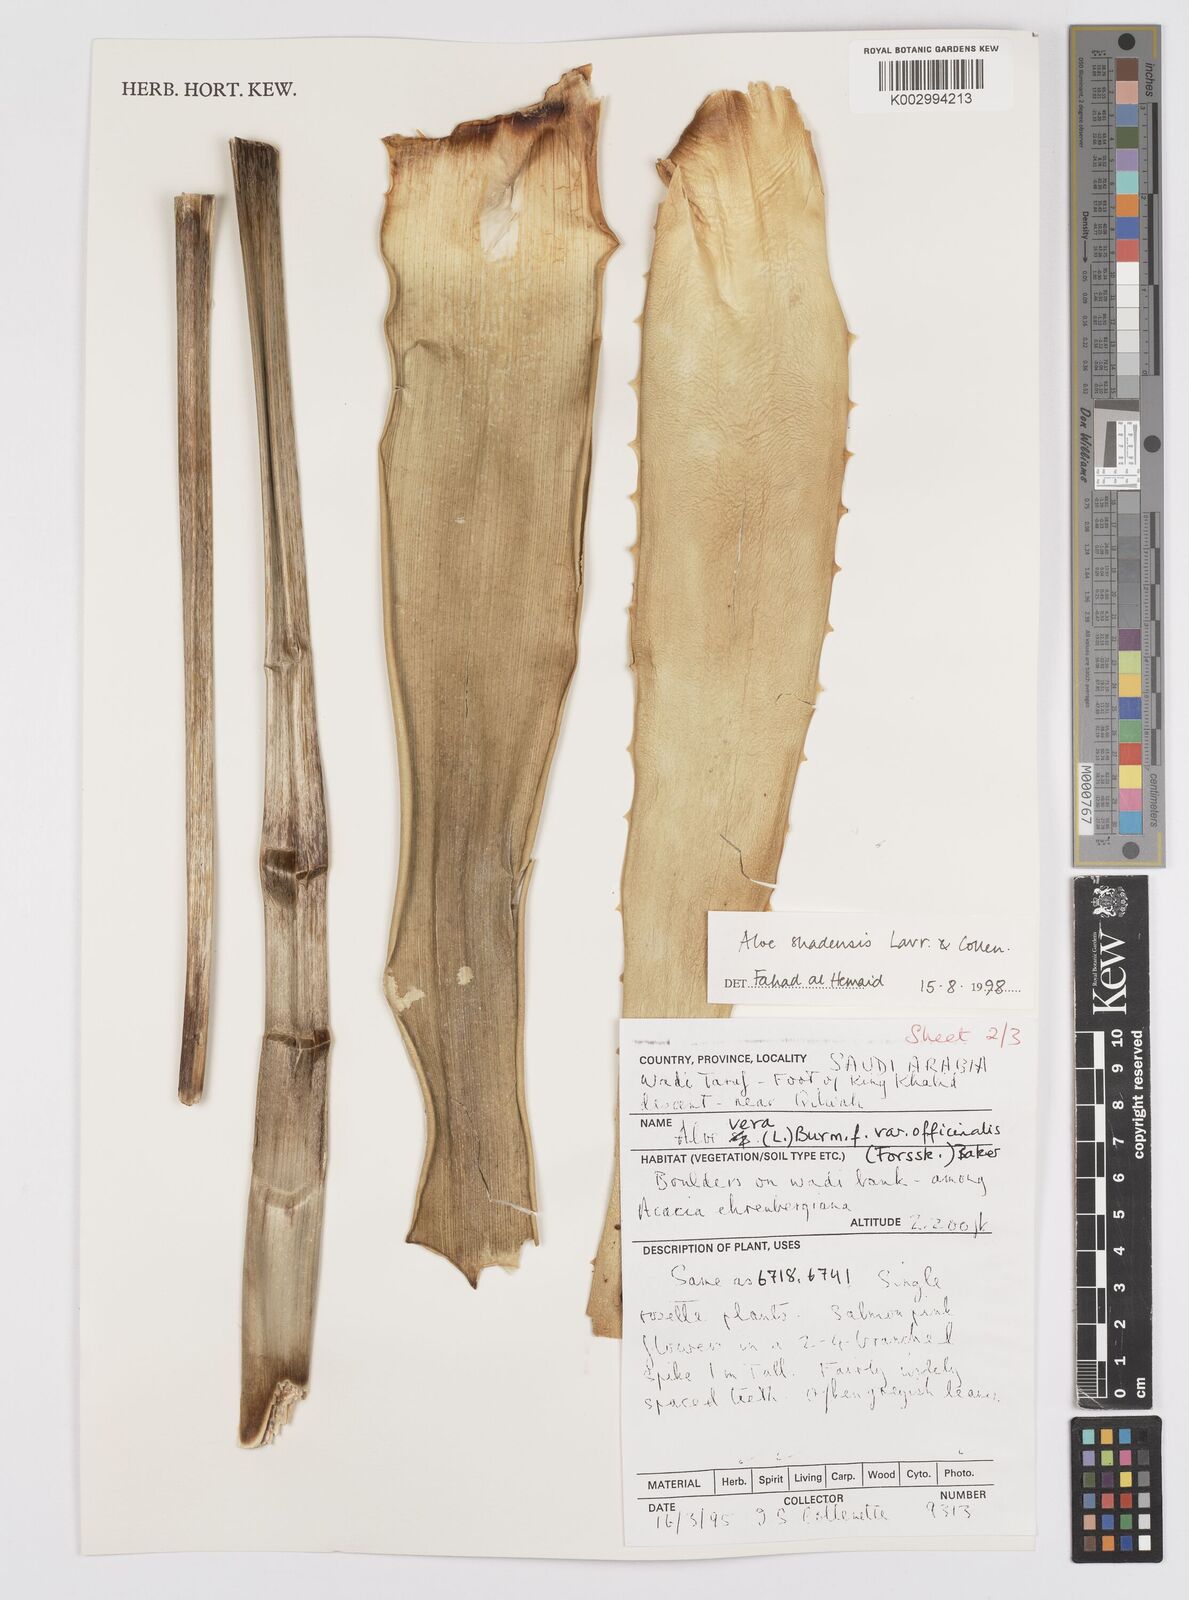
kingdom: Plantae
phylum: Tracheophyta
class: Liliopsida
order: Asparagales
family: Asphodelaceae
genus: Aloe
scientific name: Aloe shadensis
